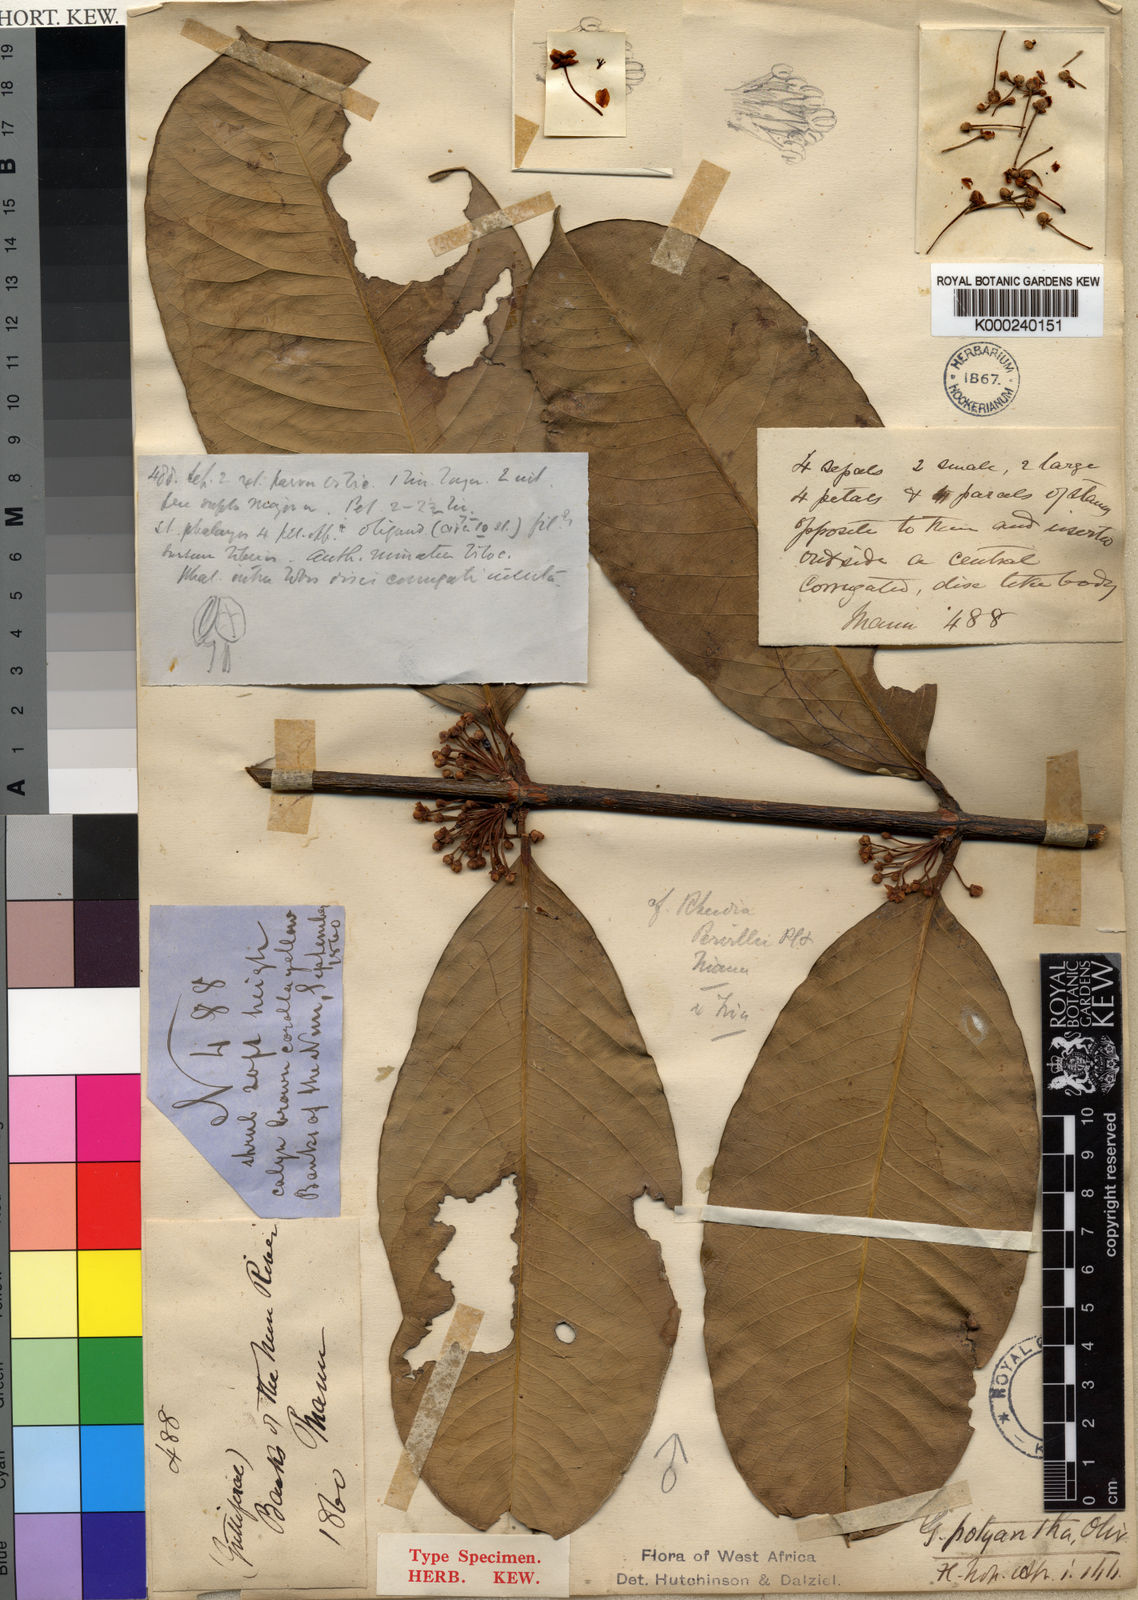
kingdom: Plantae
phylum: Tracheophyta
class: Magnoliopsida
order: Malpighiales
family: Clusiaceae
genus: Garcinia
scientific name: Garcinia smeathmannii
